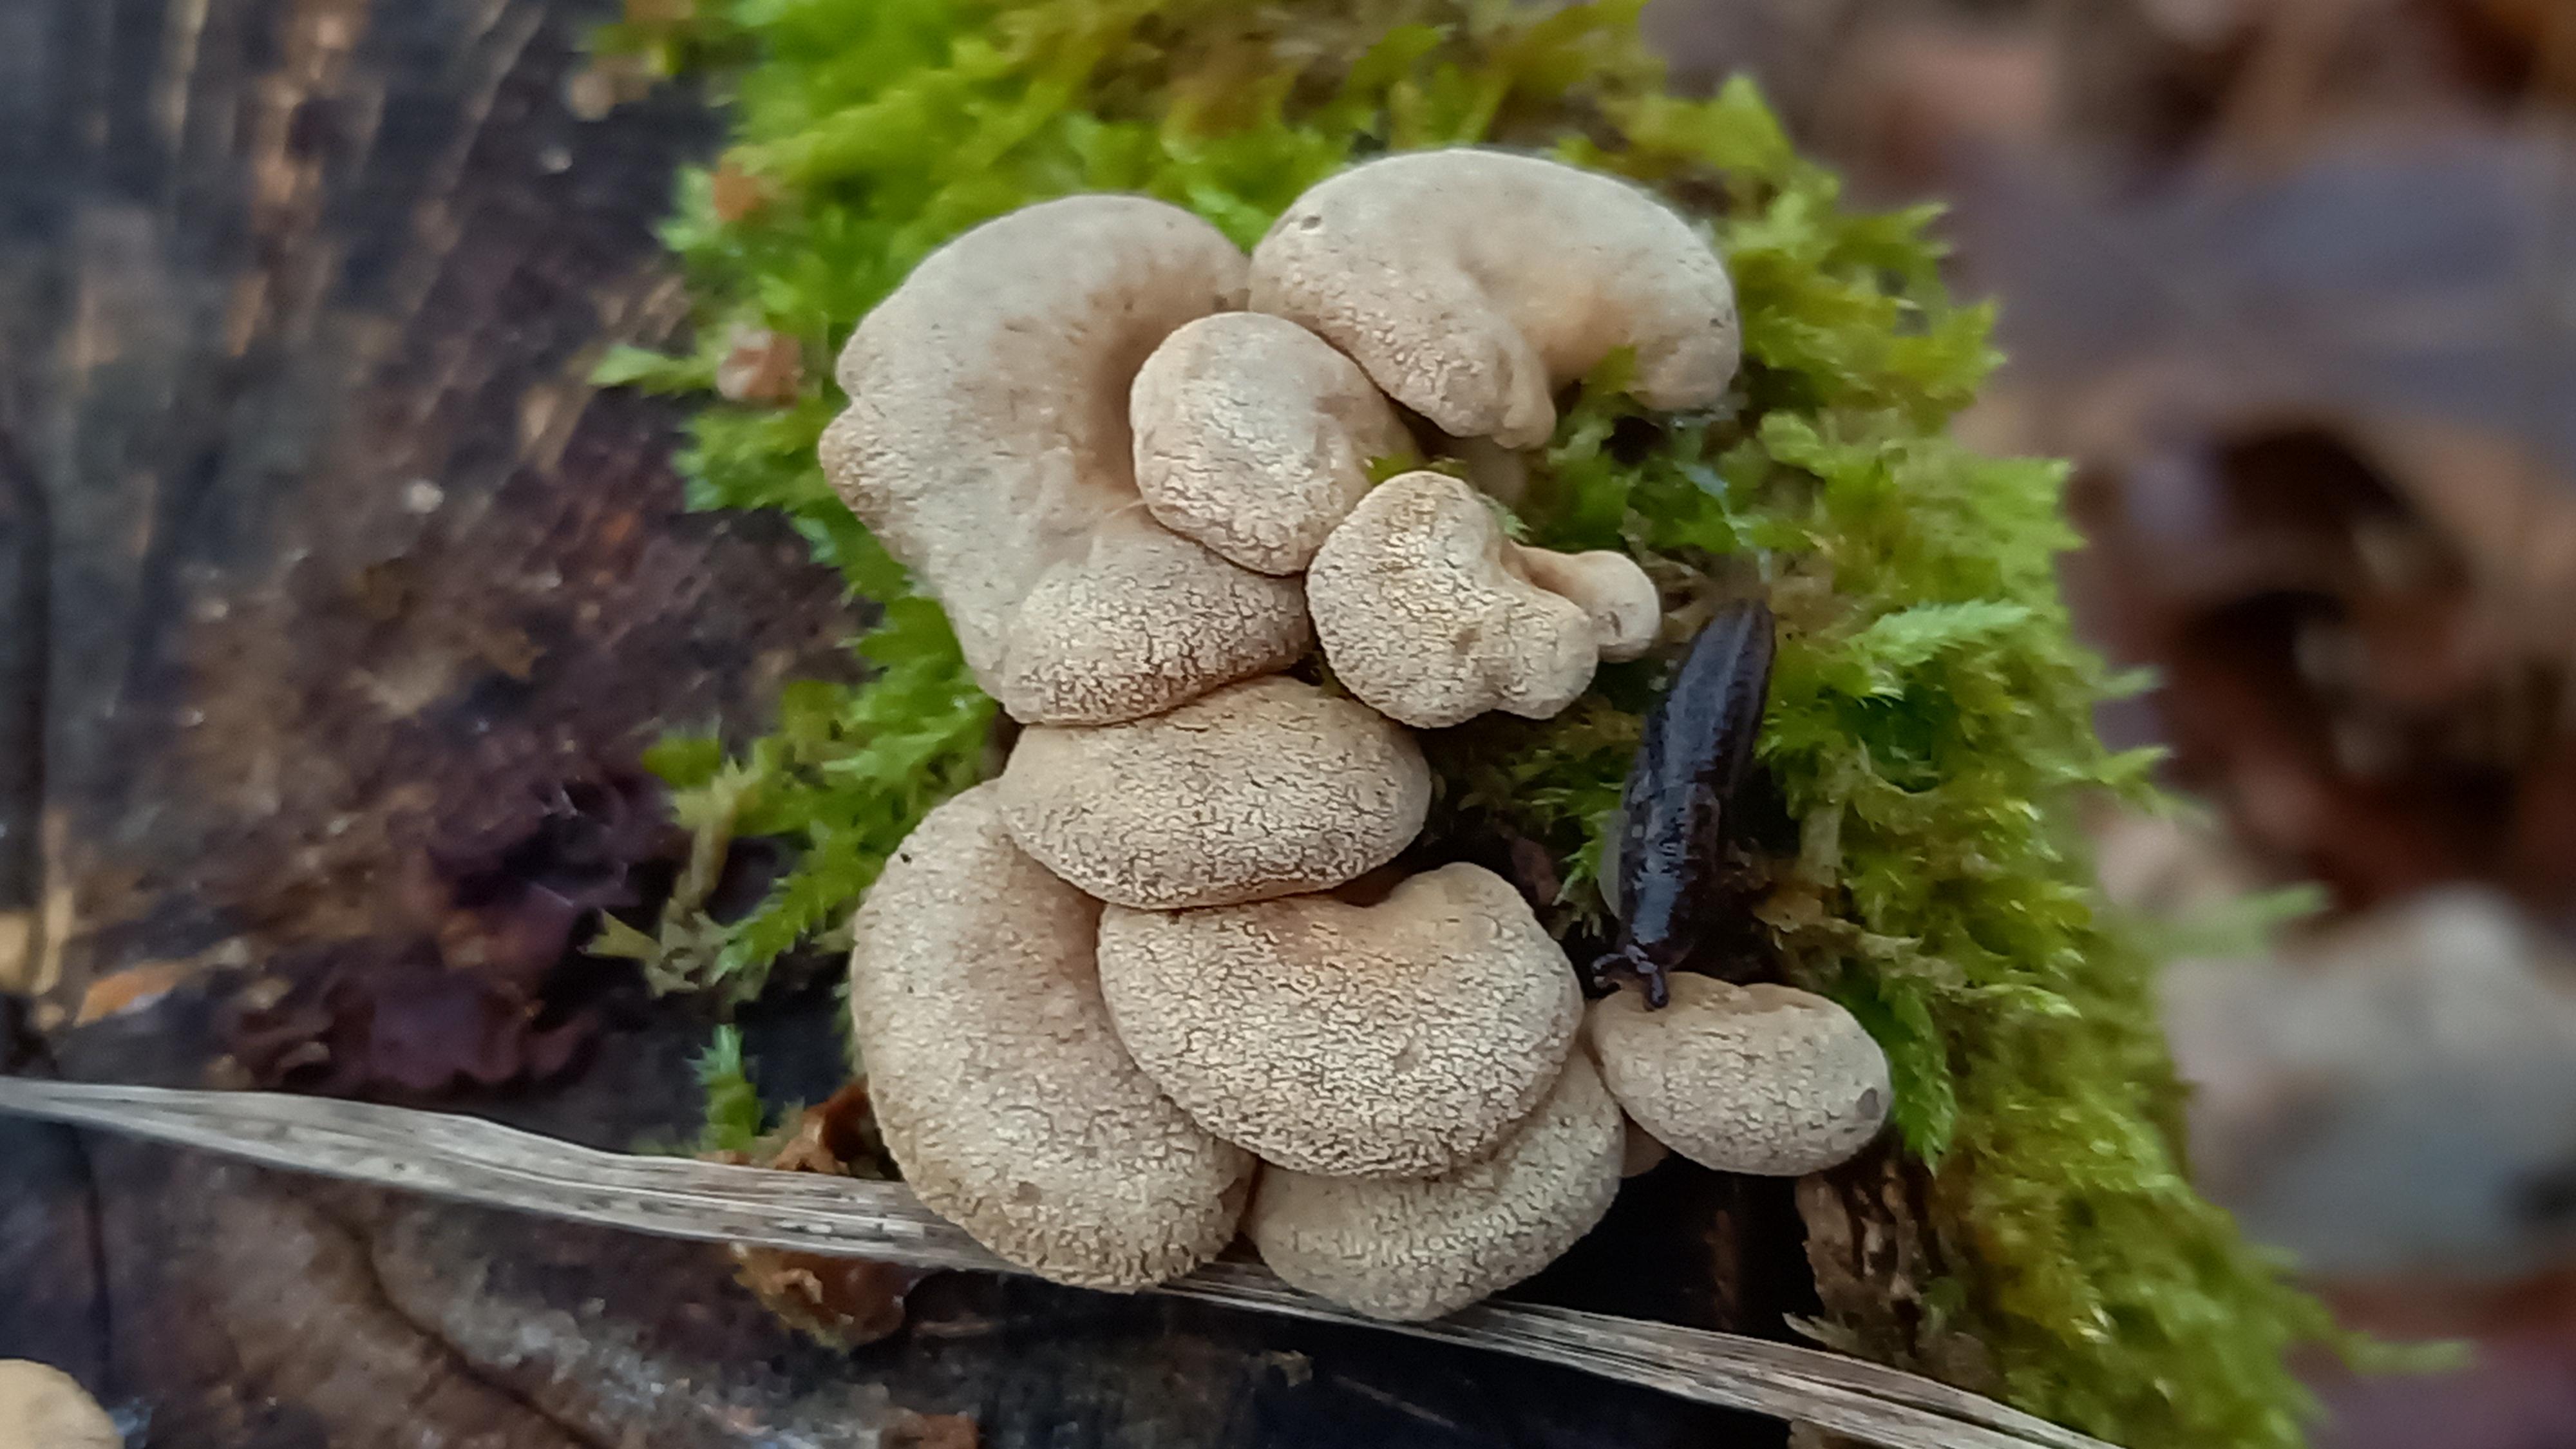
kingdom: Fungi
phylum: Basidiomycota
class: Agaricomycetes
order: Agaricales
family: Mycenaceae
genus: Panellus
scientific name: Panellus stipticus
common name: kliddet epaulethat
